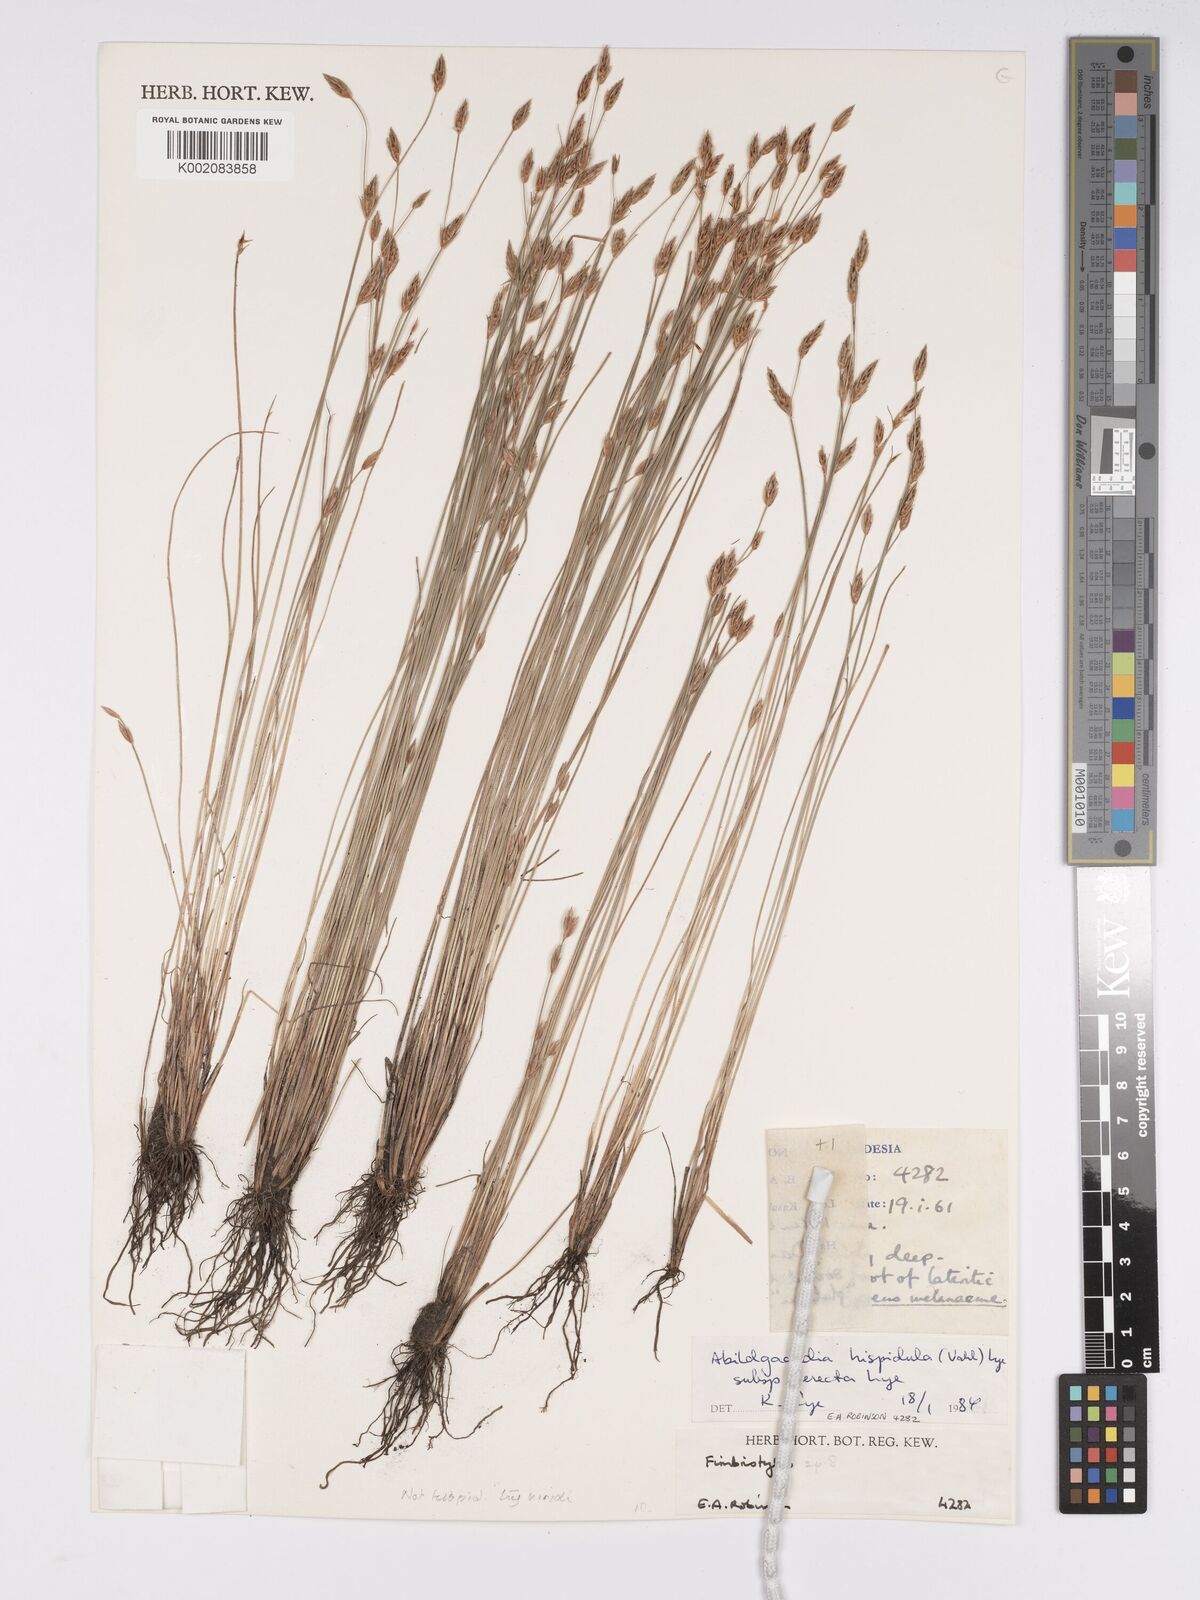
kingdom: Plantae
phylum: Tracheophyta
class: Liliopsida
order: Poales
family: Cyperaceae
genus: Bulbostylis
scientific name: Bulbostylis hispidula
